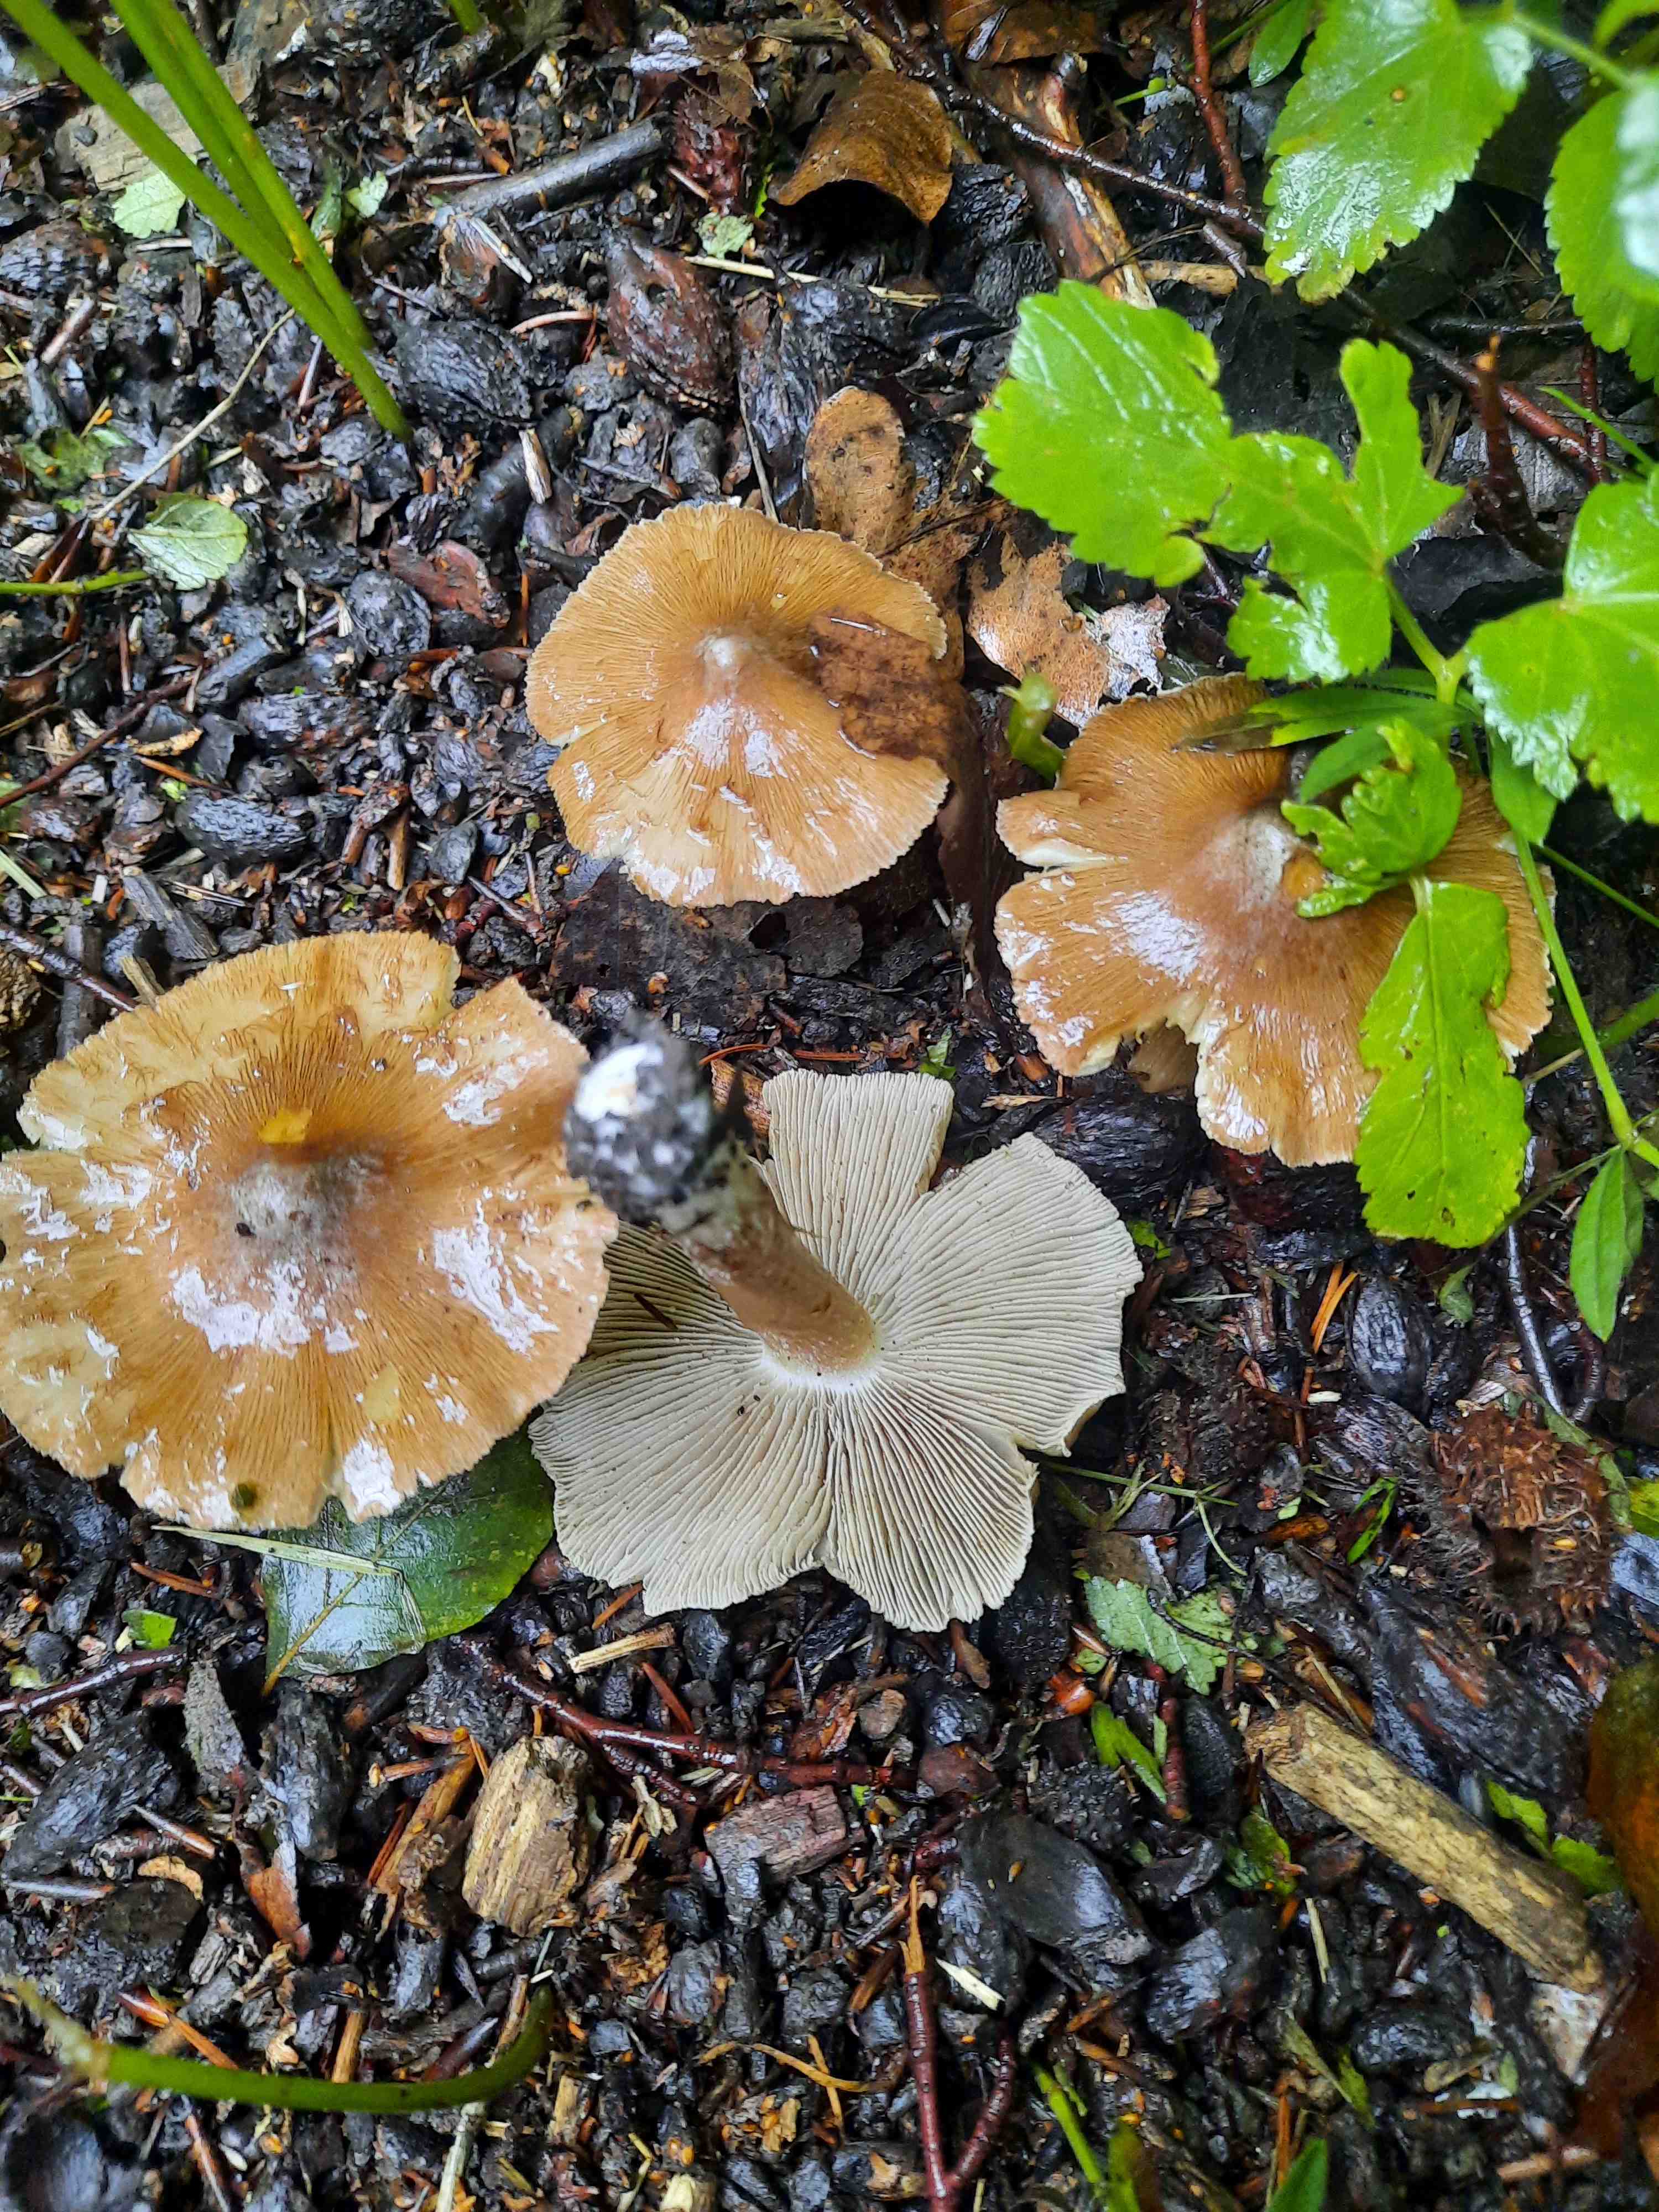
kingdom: Fungi
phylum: Basidiomycota
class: Agaricomycetes
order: Agaricales
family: Inocybaceae
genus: Inosperma
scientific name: Inosperma
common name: Trævlhat
